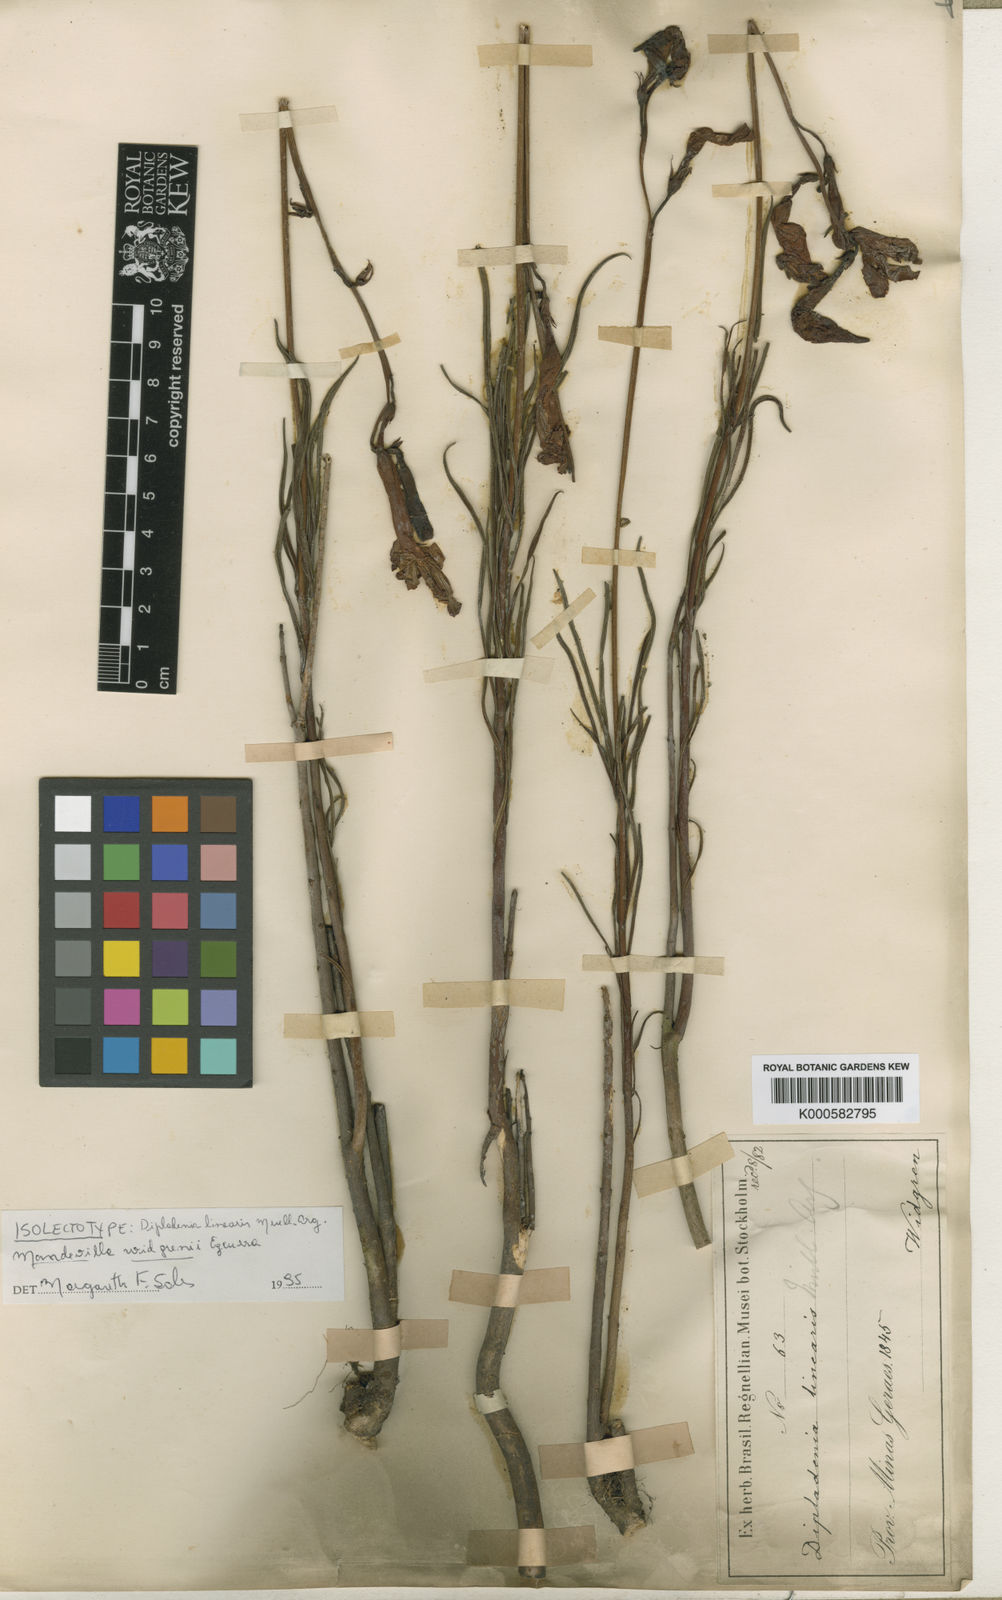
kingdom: Plantae
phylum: Tracheophyta
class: Magnoliopsida
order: Gentianales
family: Apocynaceae
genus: Mandevilla
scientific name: Mandevilla widgrenii
